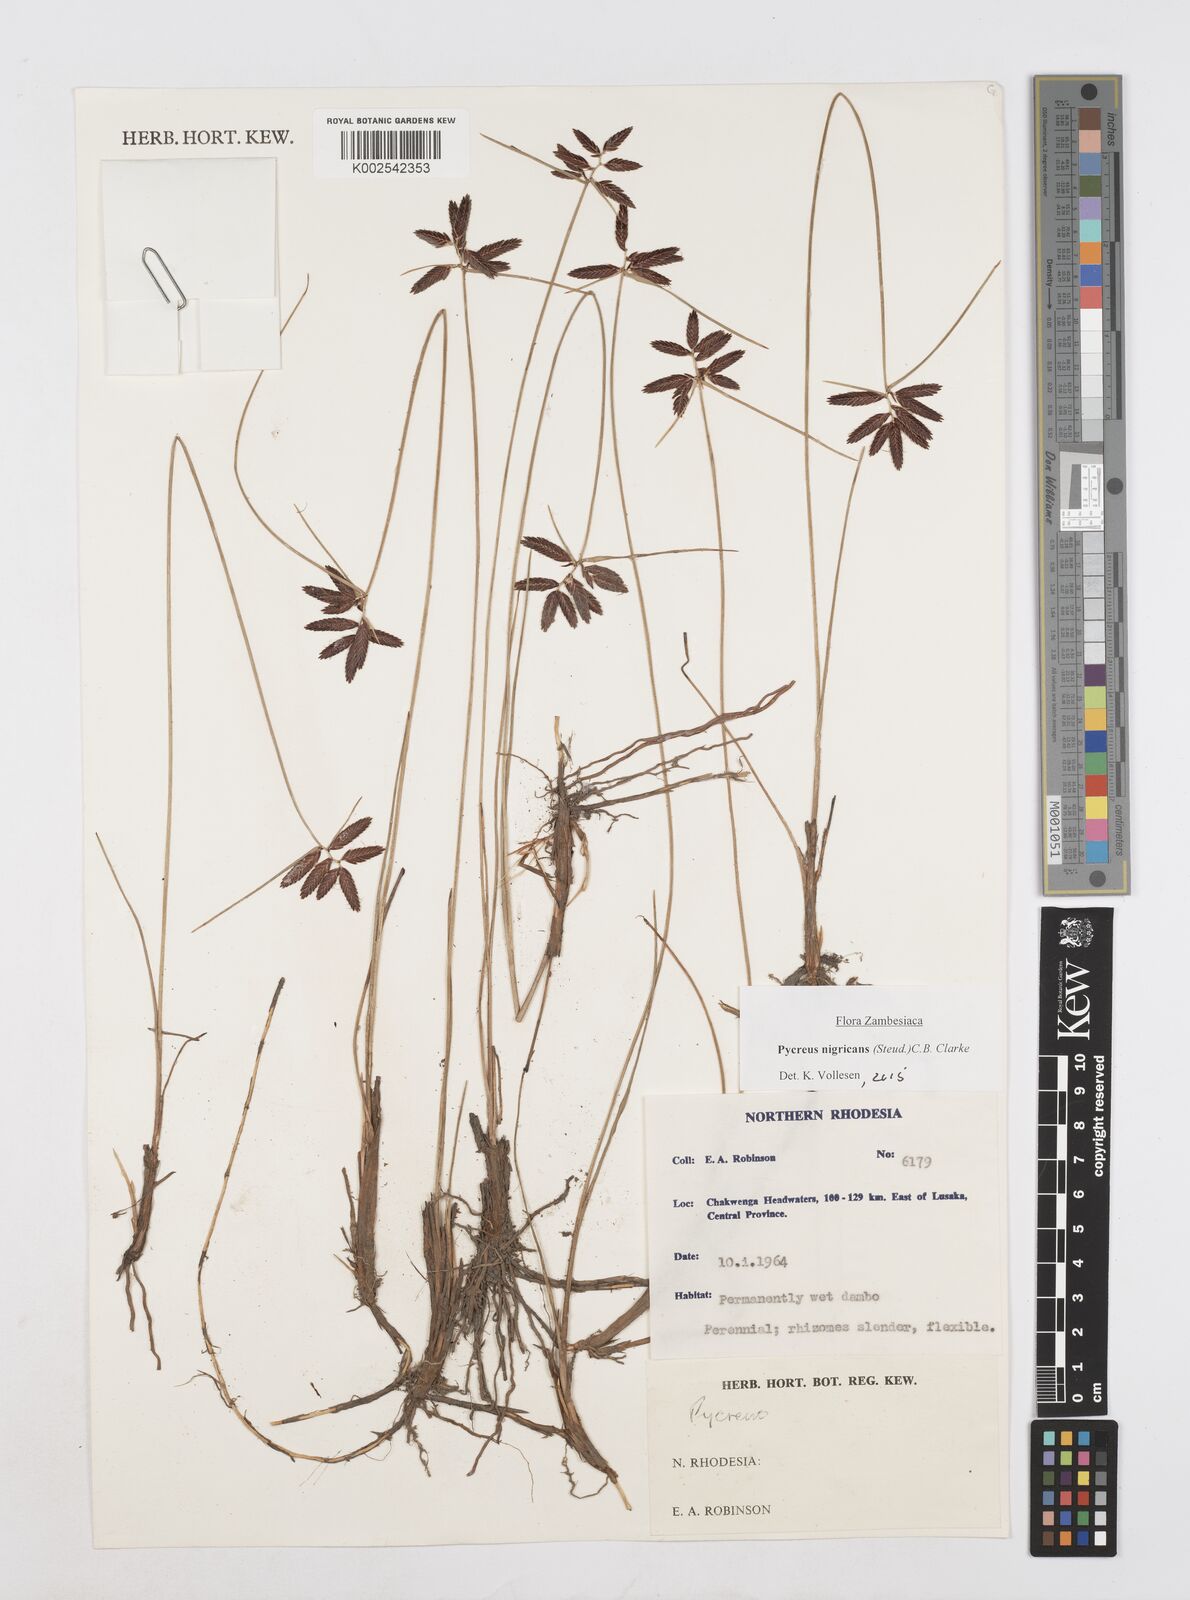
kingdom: Plantae
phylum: Tracheophyta
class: Liliopsida
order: Poales
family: Cyperaceae
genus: Cyperus
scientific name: Cyperus nigricans
